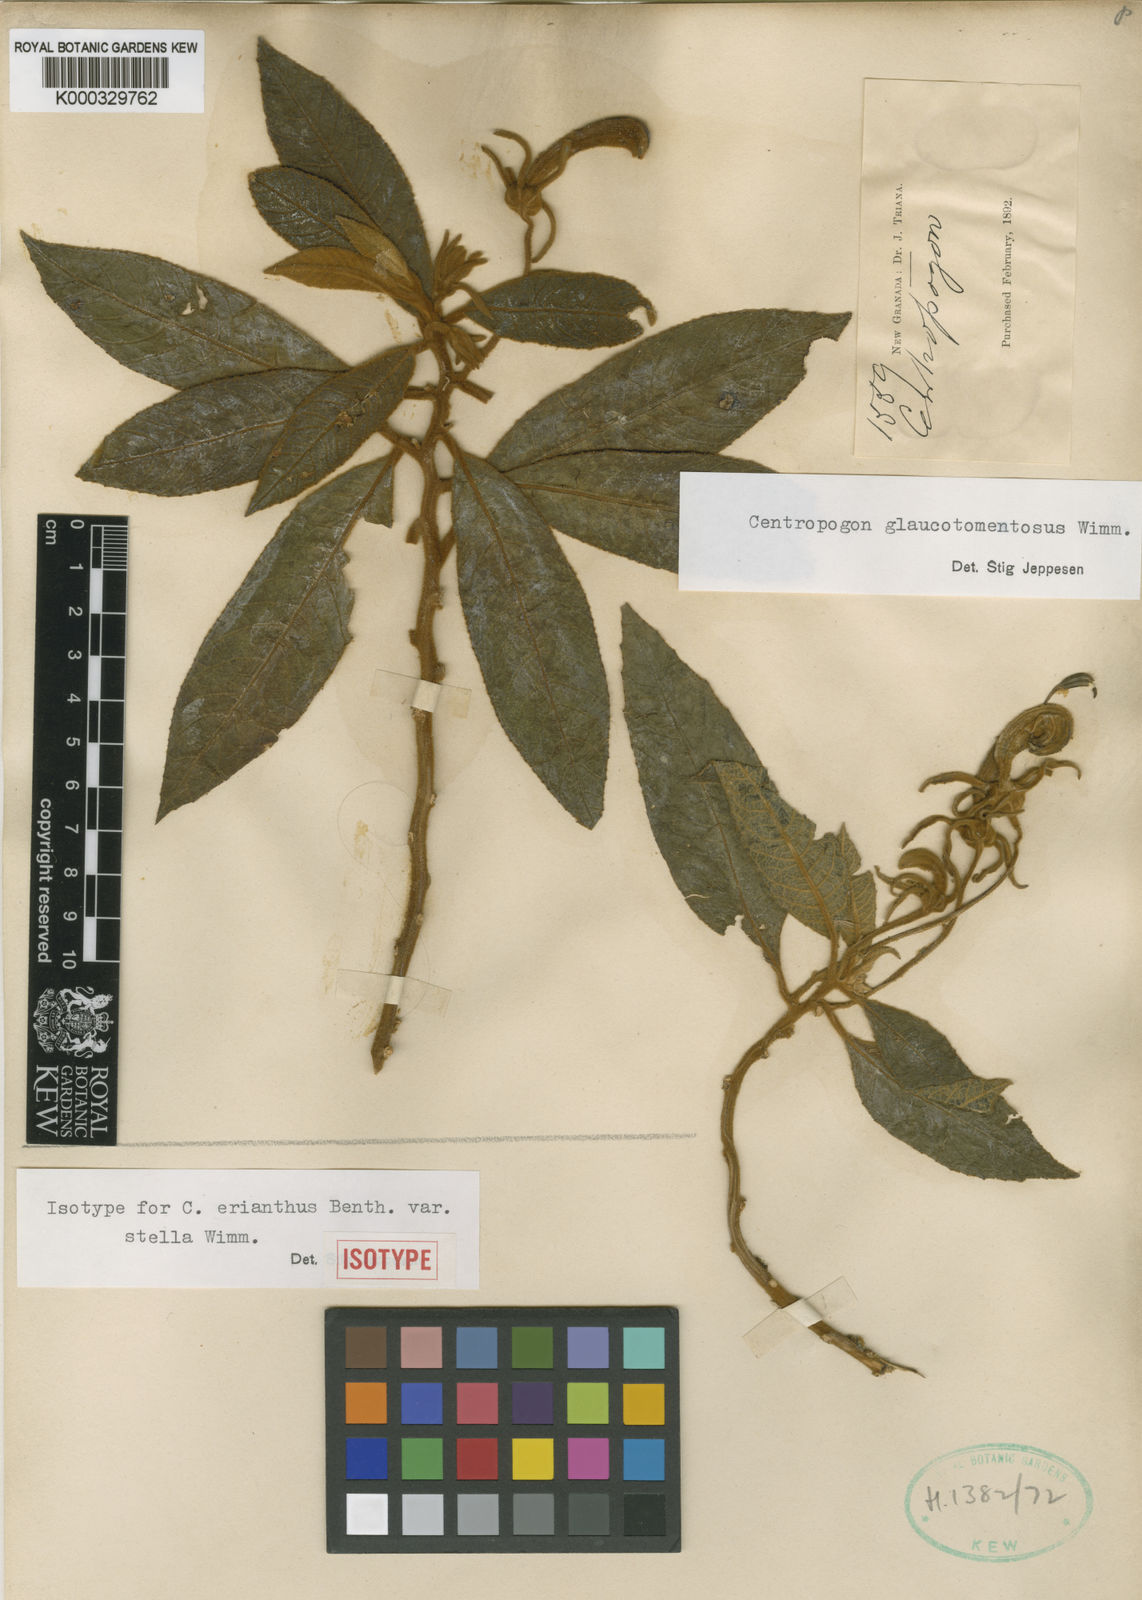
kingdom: Plantae
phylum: Tracheophyta
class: Magnoliopsida
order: Asterales
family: Campanulaceae
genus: Centropogon
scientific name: Centropogon glaucotomentosus
